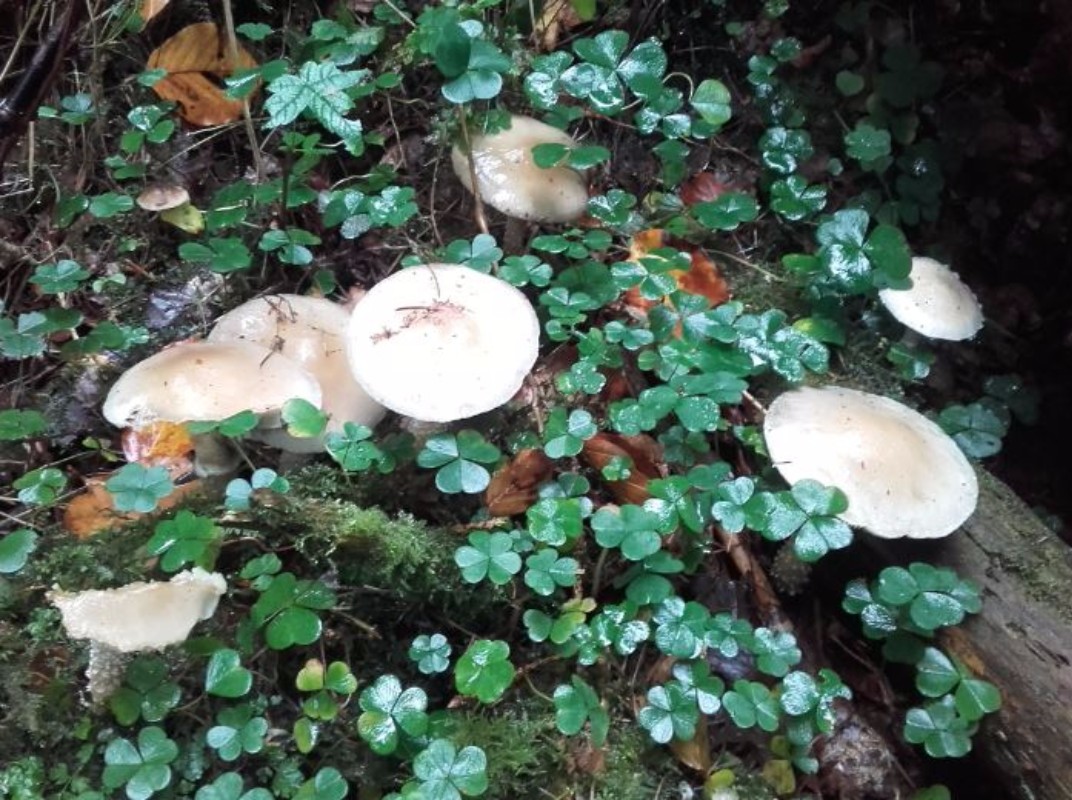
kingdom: Fungi
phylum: Basidiomycota
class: Agaricomycetes
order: Agaricales
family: Strophariaceae
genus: Stropharia
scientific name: Stropharia hornemannii
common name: nordisk bredblad
